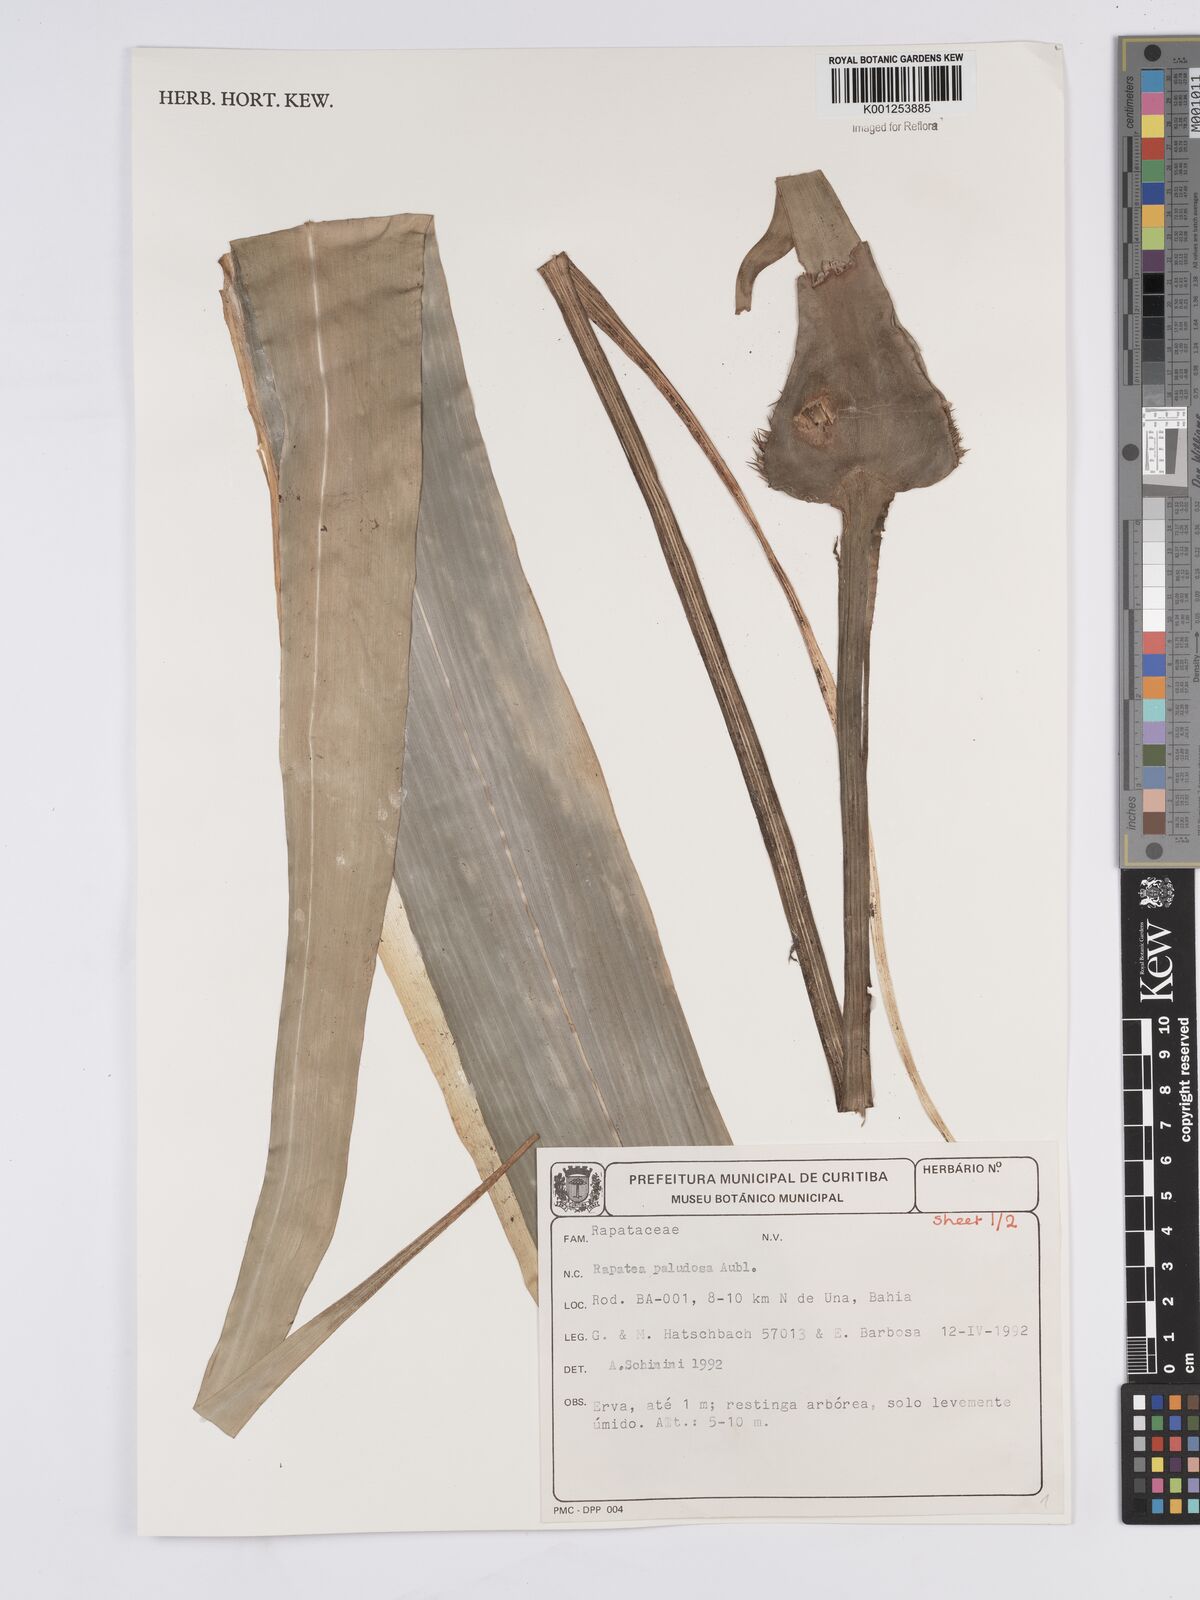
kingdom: Plantae
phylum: Tracheophyta
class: Liliopsida
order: Poales
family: Rapateaceae
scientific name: Rapateaceae
